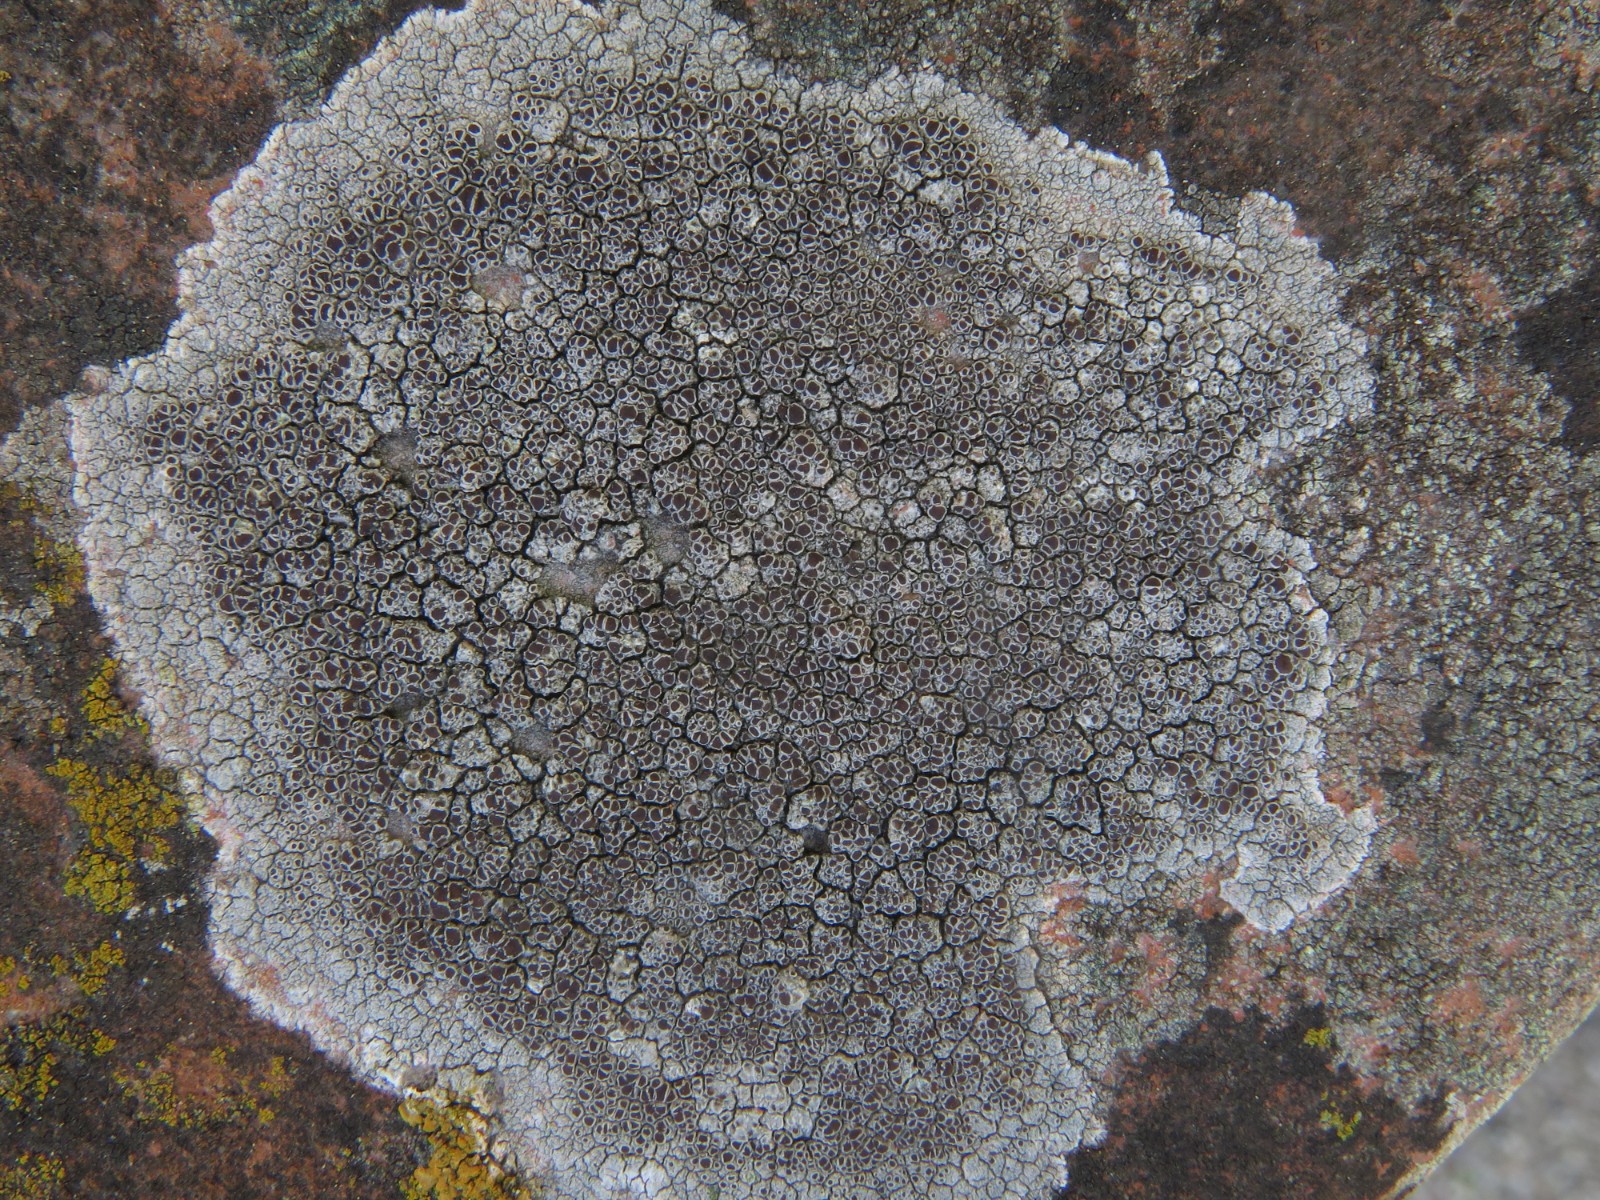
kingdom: Fungi
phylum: Ascomycota
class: Lecanoromycetes
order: Lecanorales
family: Lecanoraceae
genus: Lecanora
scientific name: Lecanora campestris
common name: mur-kantskivelav
